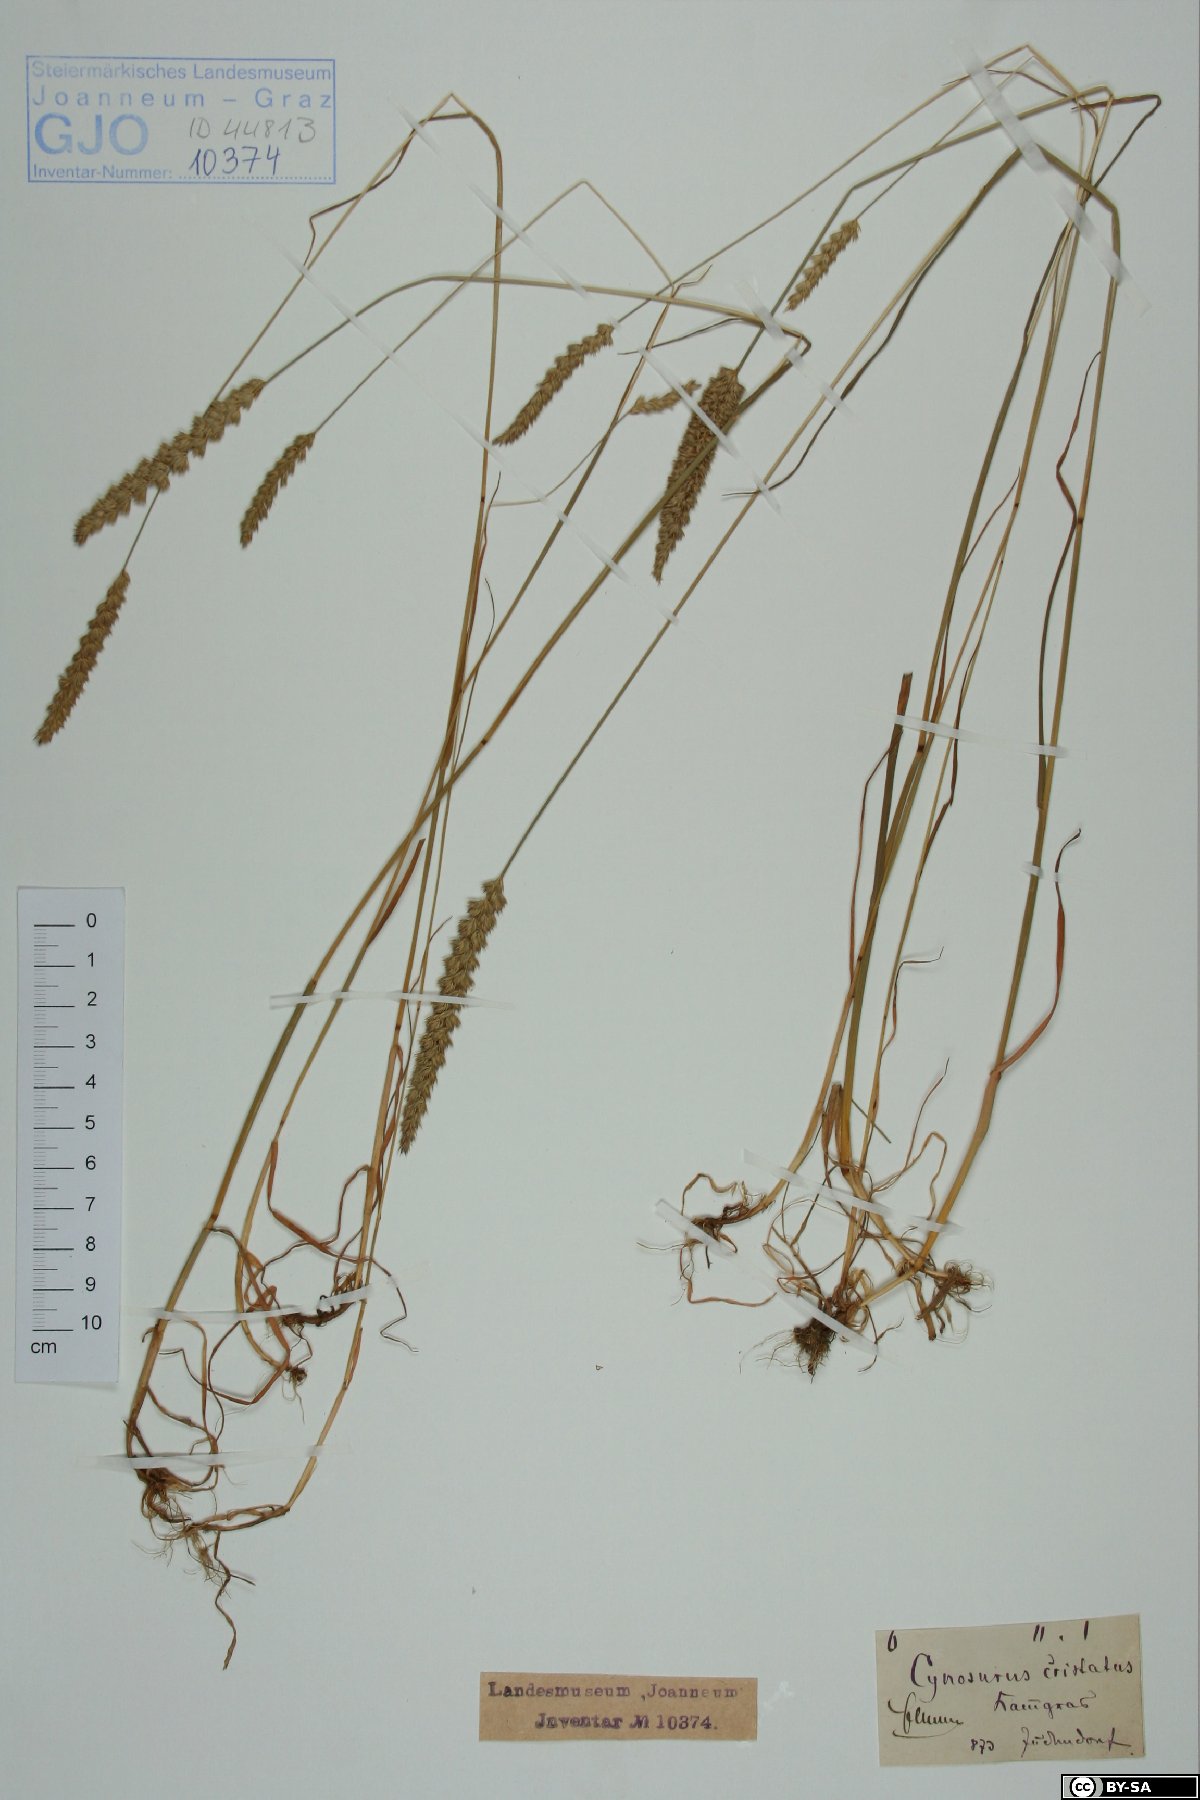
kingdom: Plantae
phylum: Tracheophyta
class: Liliopsida
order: Poales
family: Poaceae
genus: Cynosurus
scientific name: Cynosurus cristatus
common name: Crested dog's-tail
